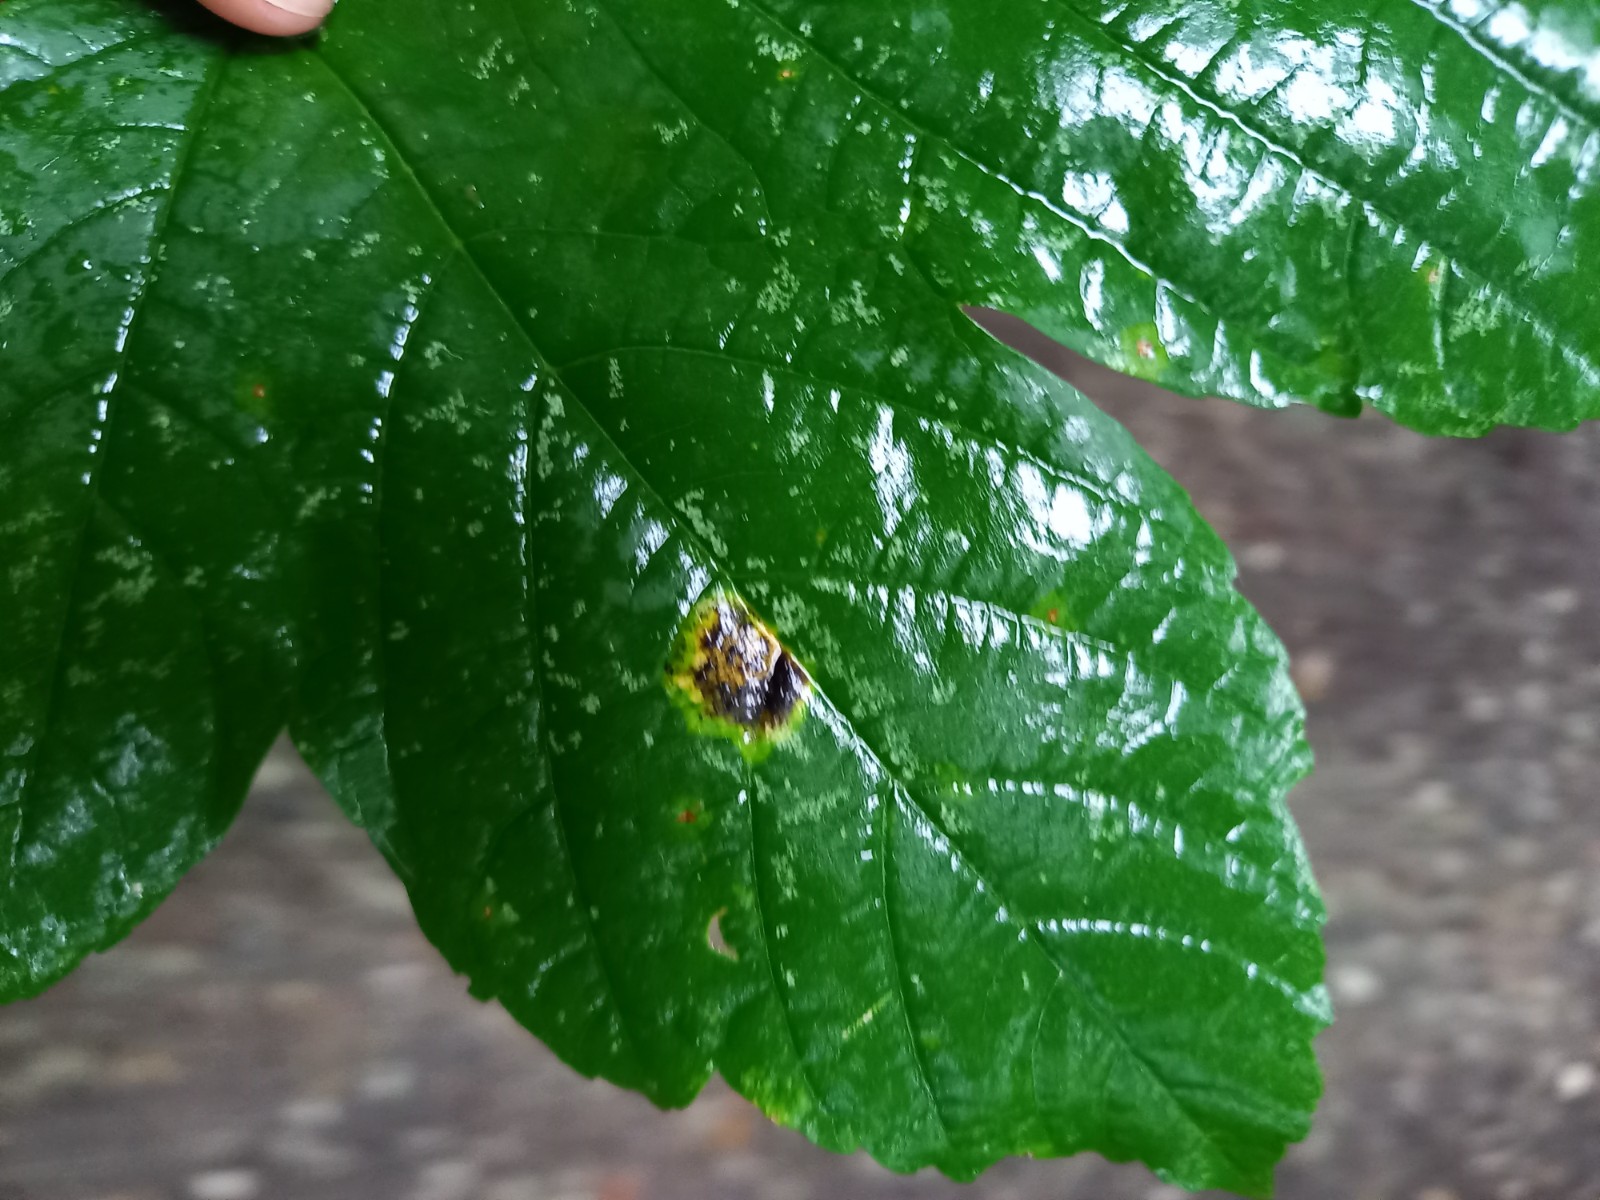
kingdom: Fungi
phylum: Ascomycota
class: Leotiomycetes
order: Rhytismatales
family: Rhytismataceae
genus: Rhytisma
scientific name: Rhytisma acerinum
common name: ahorn-rynkeplet
